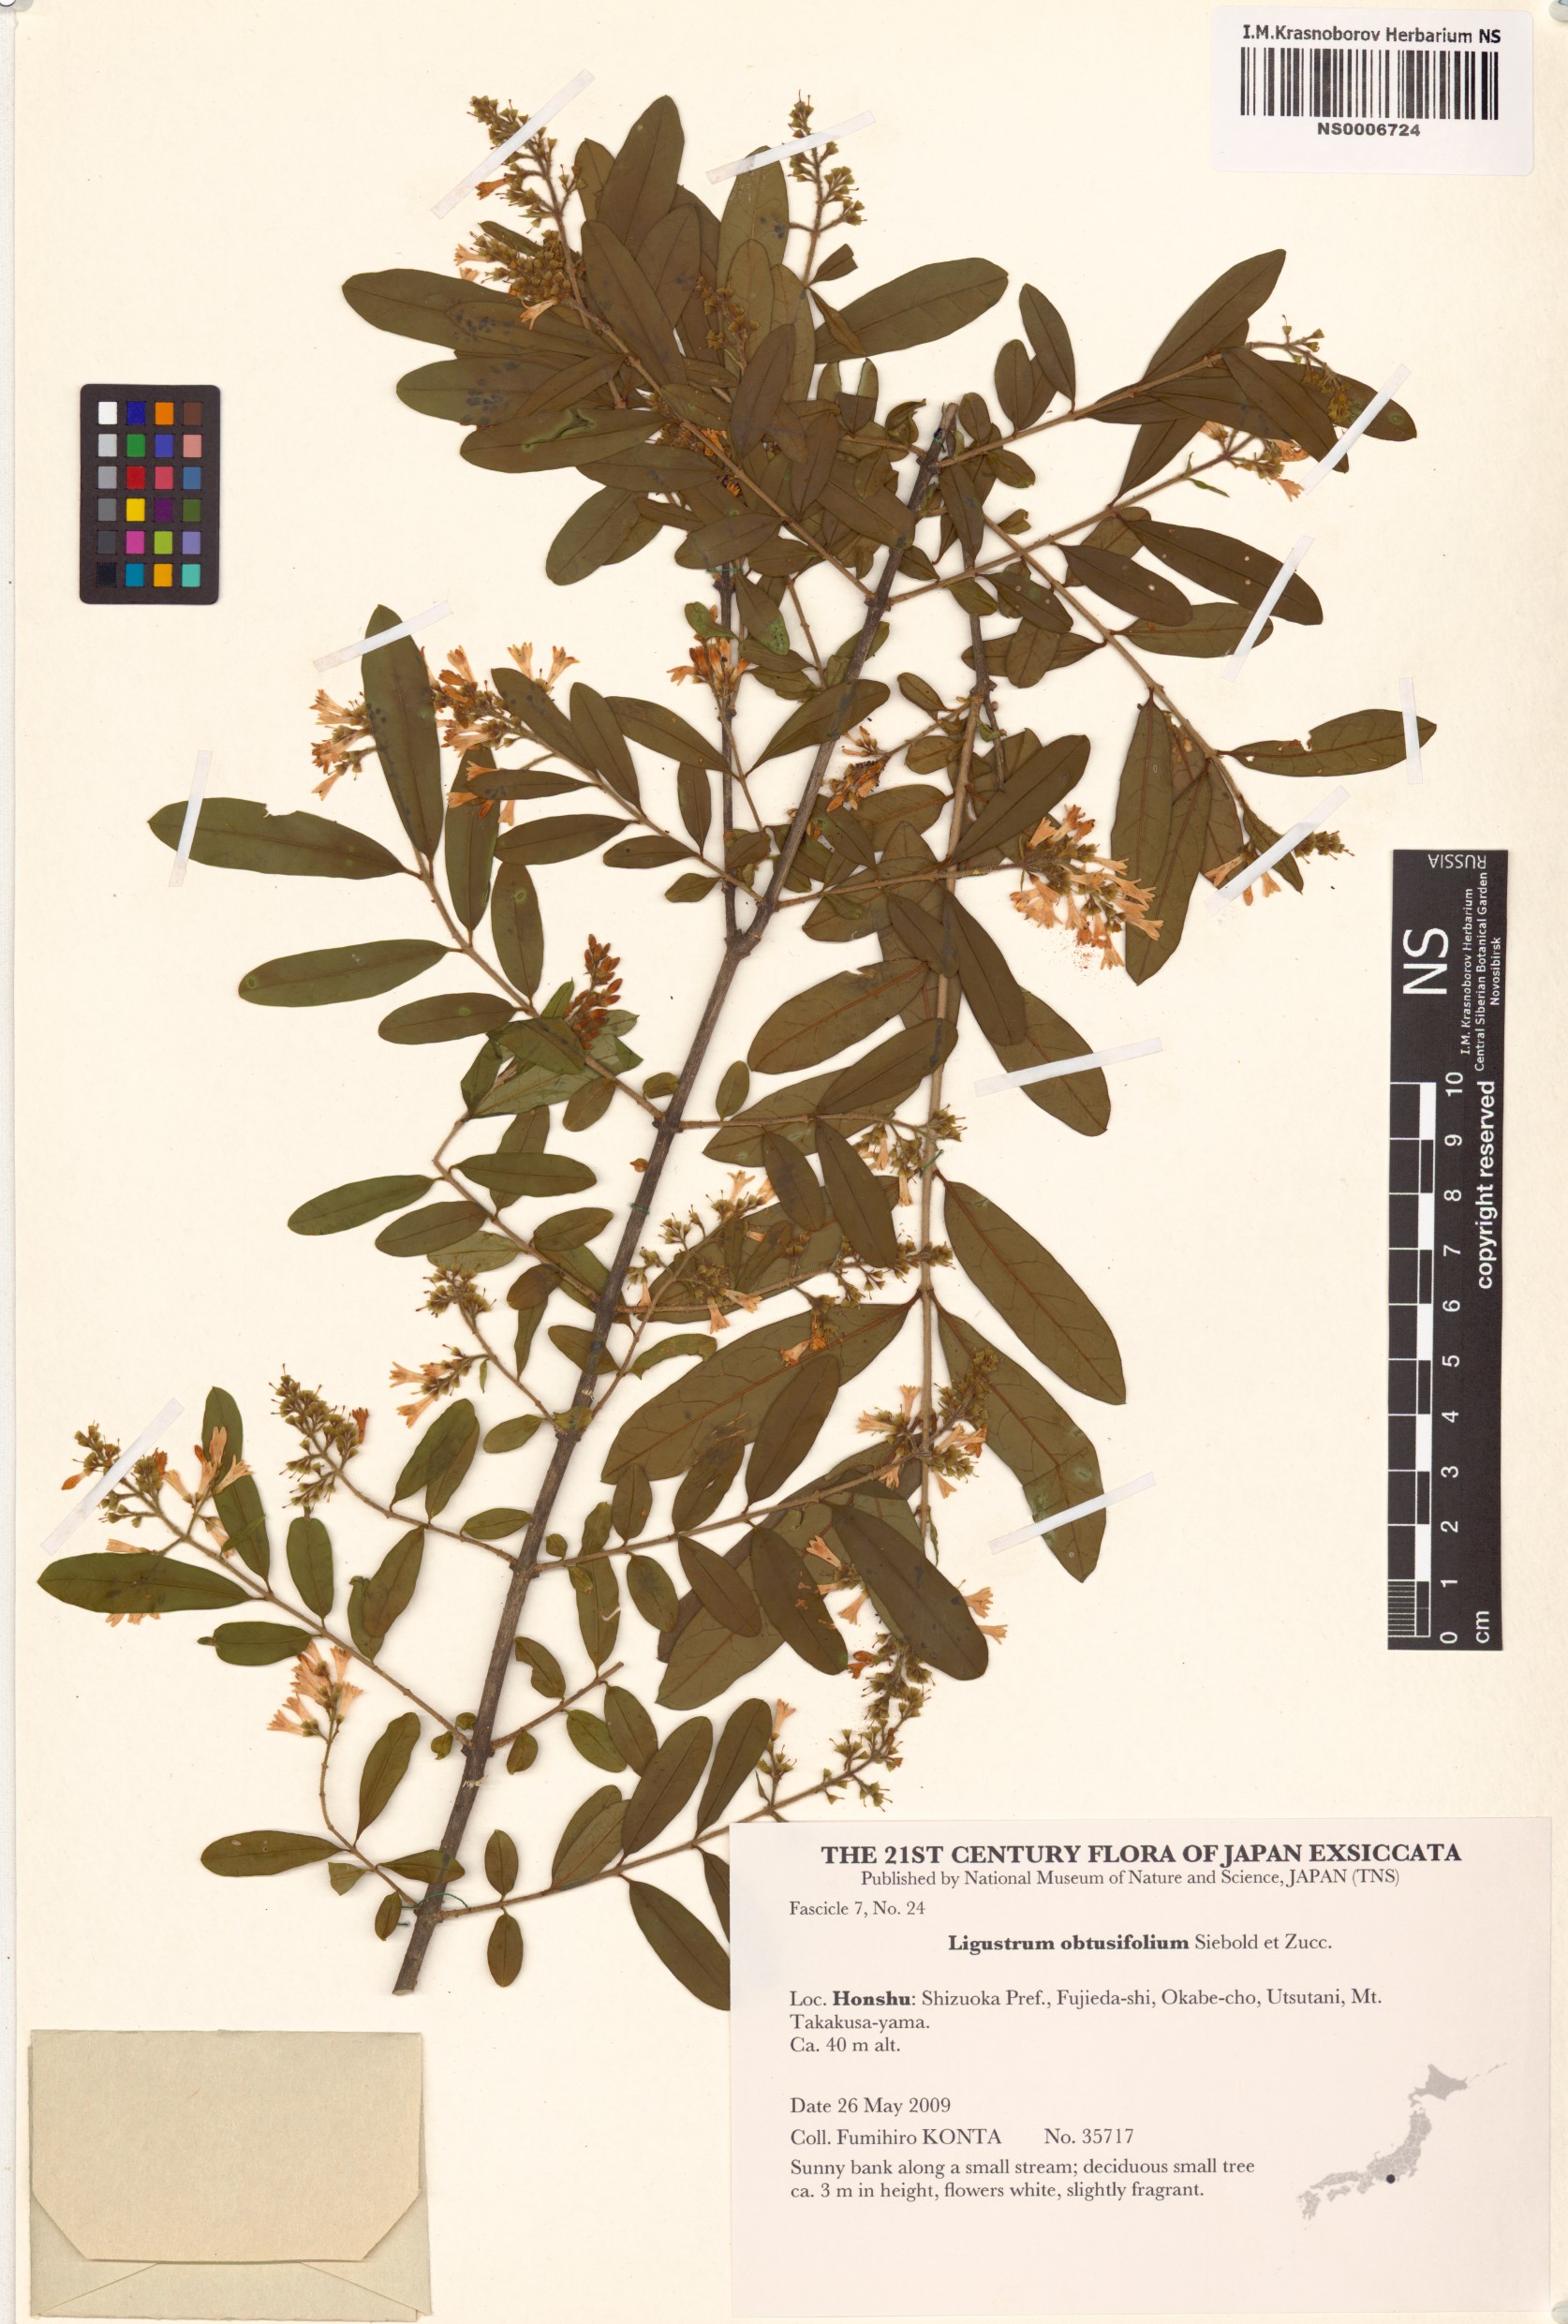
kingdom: Plantae
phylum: Tracheophyta
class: Magnoliopsida
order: Lamiales
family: Oleaceae
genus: Ligustrum
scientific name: Ligustrum obtusifolium
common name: Border privet
